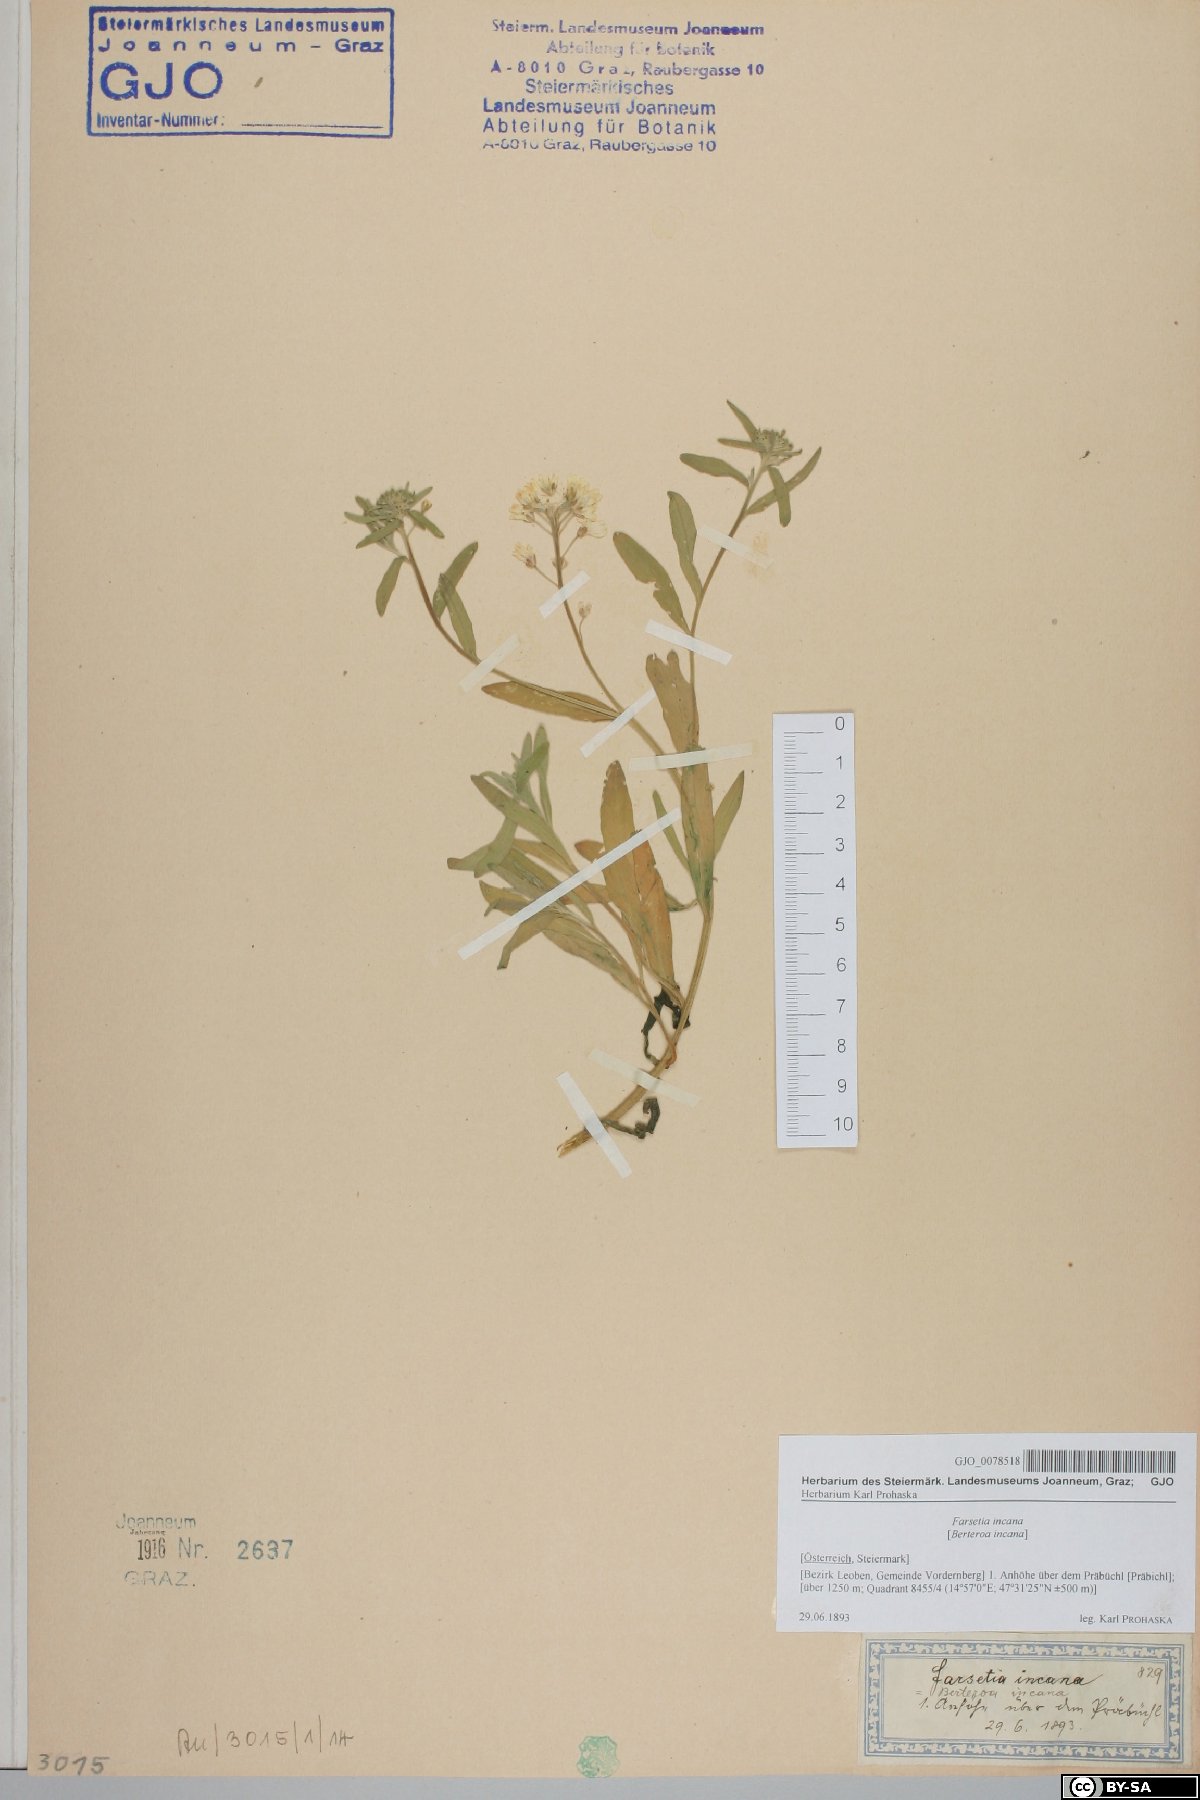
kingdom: Plantae
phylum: Tracheophyta
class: Magnoliopsida
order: Brassicales
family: Brassicaceae
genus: Berteroa
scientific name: Berteroa incana
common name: Hoary alison
